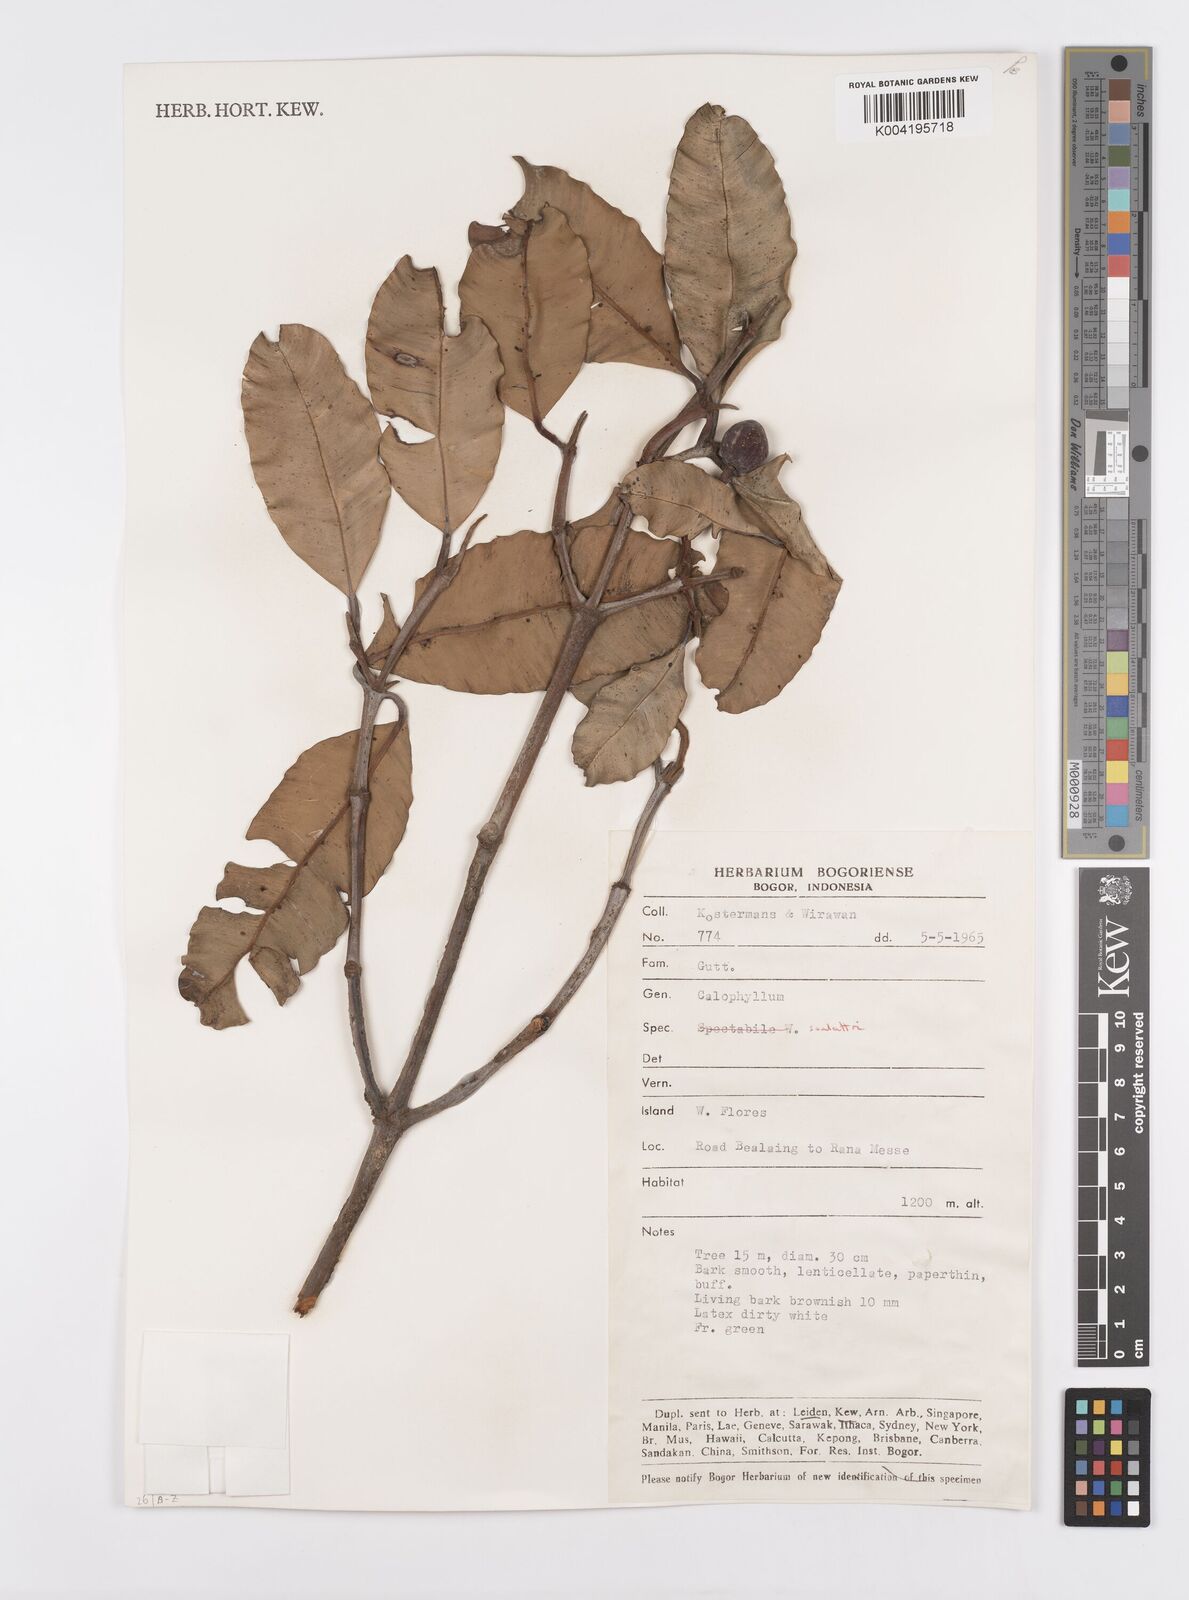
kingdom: Plantae
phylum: Tracheophyta
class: Magnoliopsida
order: Malpighiales
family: Calophyllaceae
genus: Calophyllum
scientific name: Calophyllum soulattri
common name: Bitangoor boonot
